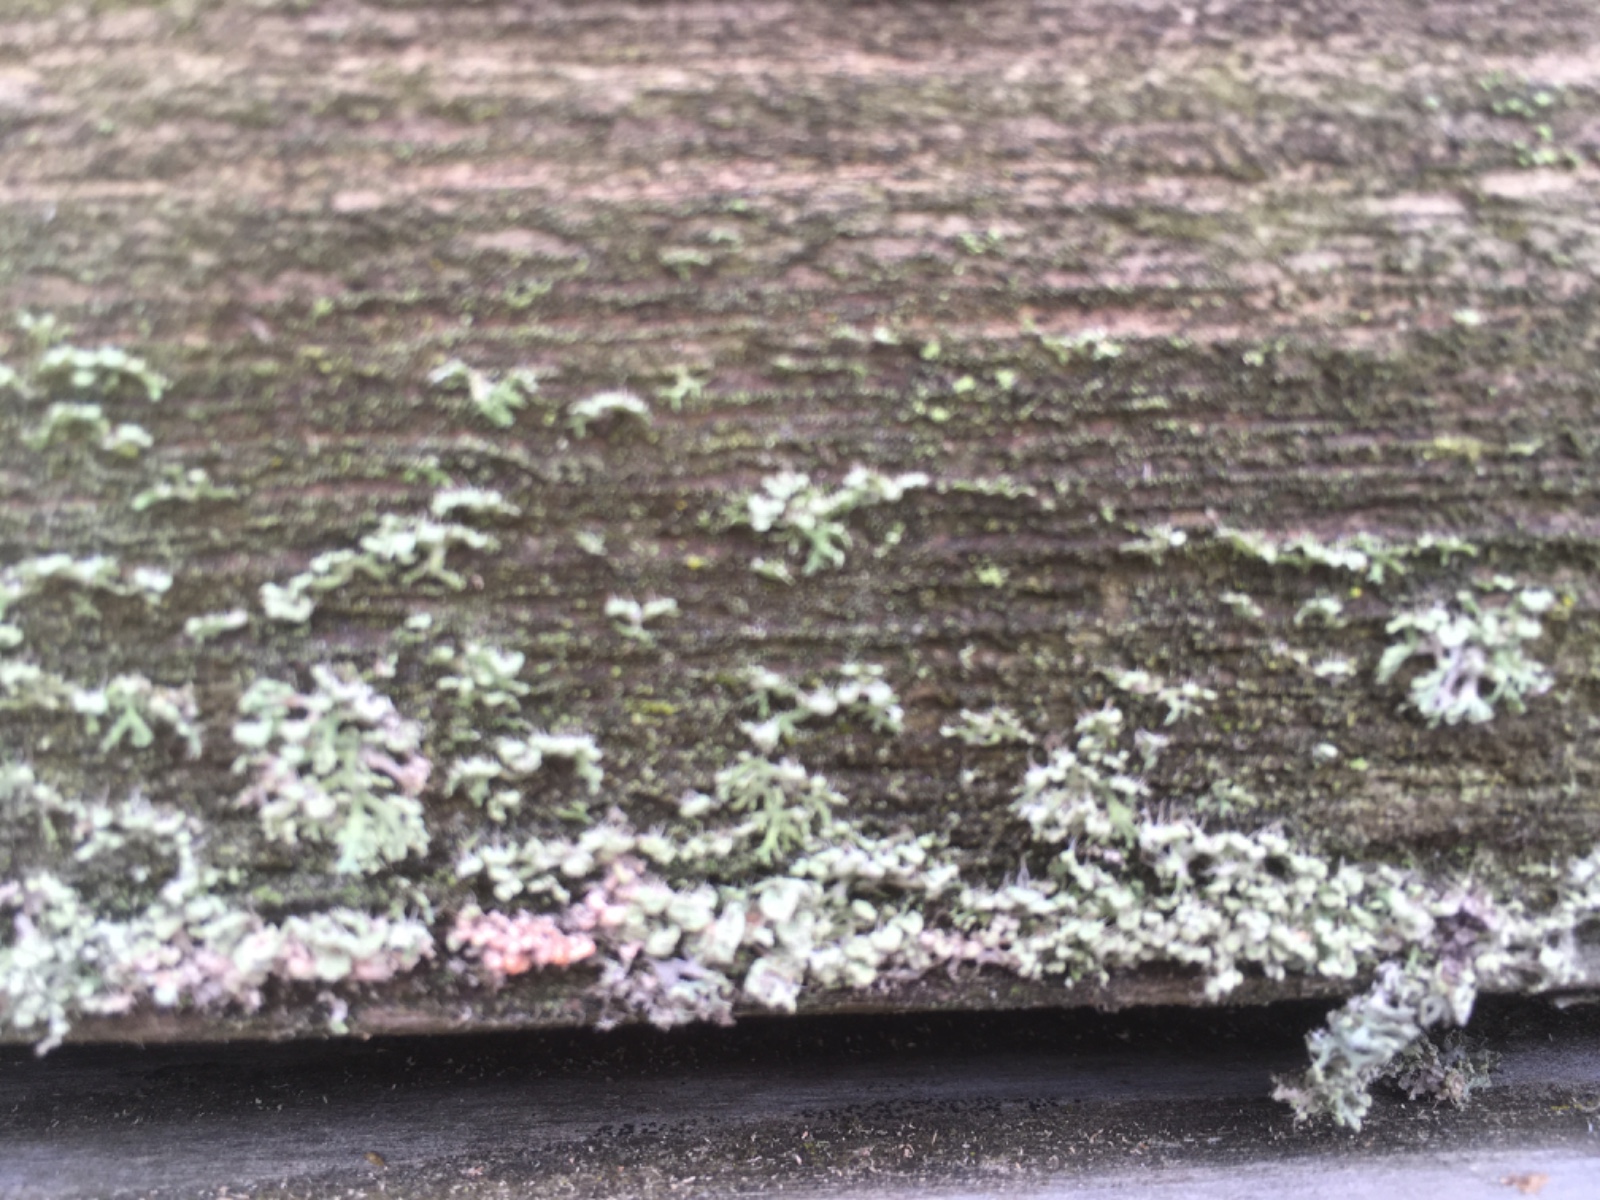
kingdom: Fungi
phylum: Basidiomycota
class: Agaricomycetes
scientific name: Agaricomycetes
